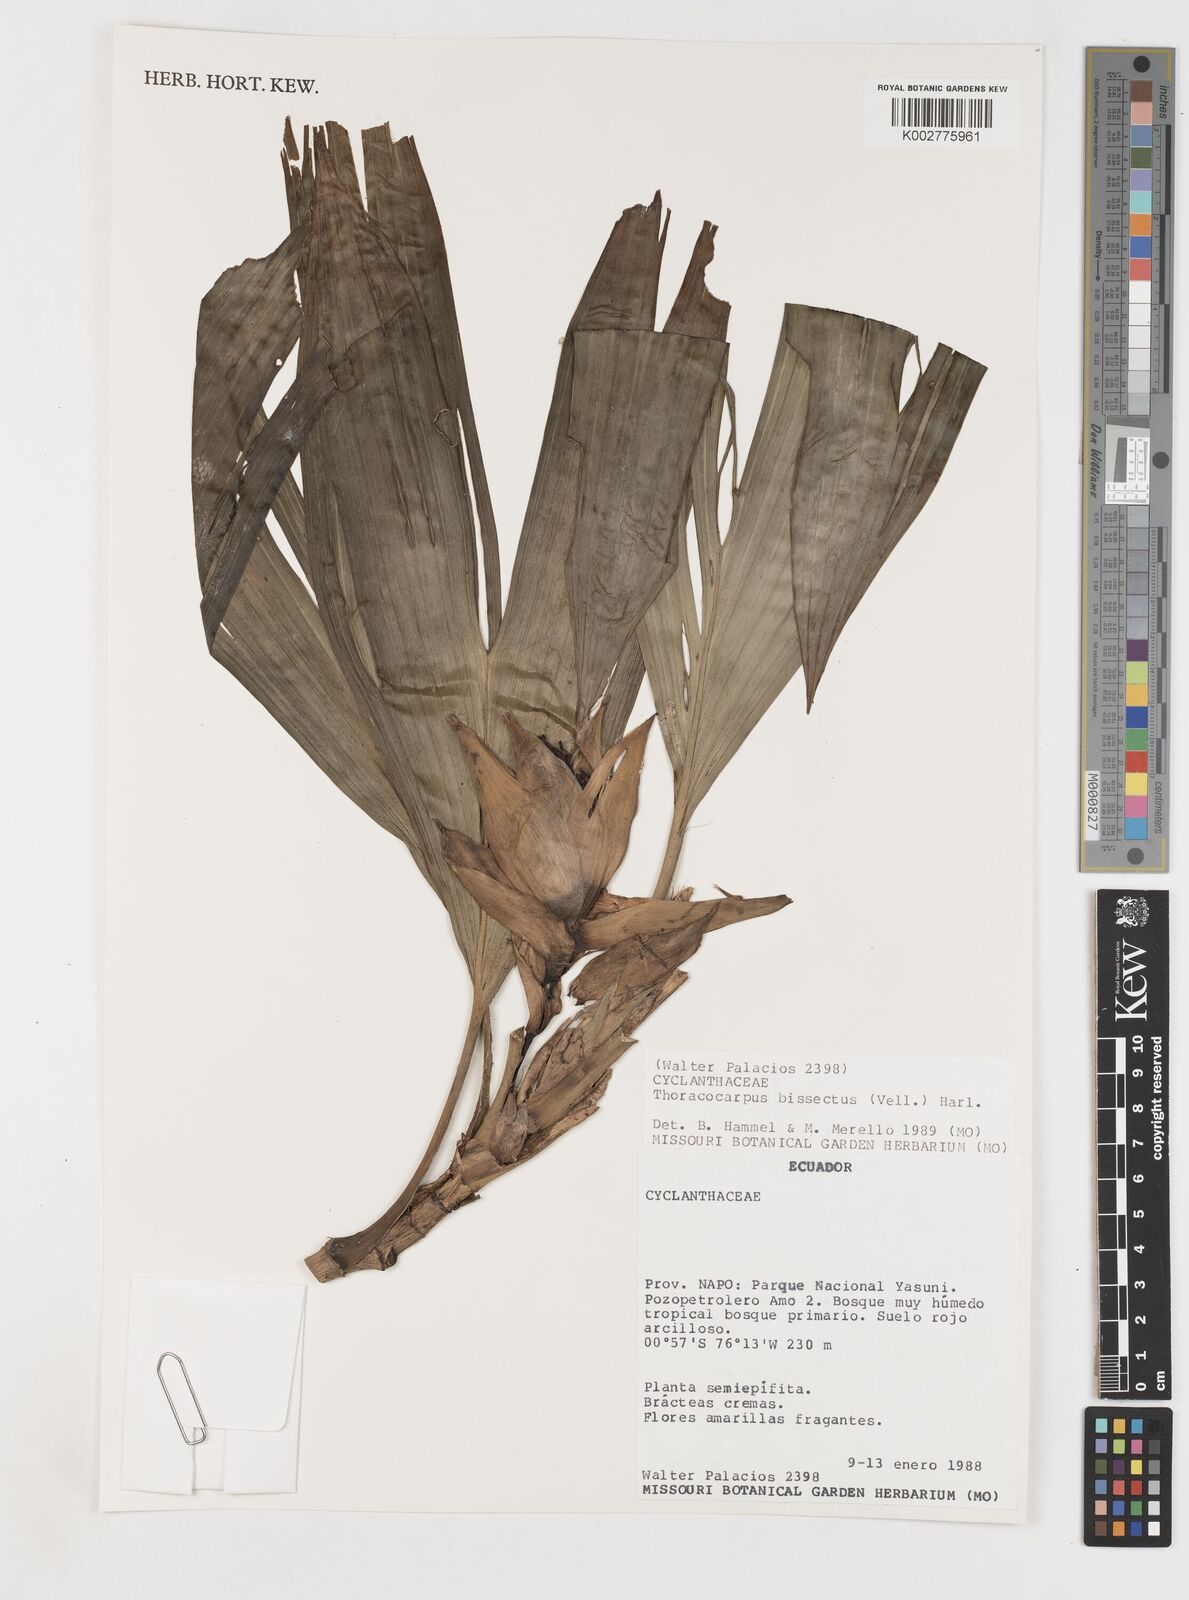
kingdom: Plantae
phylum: Tracheophyta
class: Liliopsida
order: Pandanales
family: Cyclanthaceae
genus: Thoracocarpus
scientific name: Thoracocarpus bissectus
